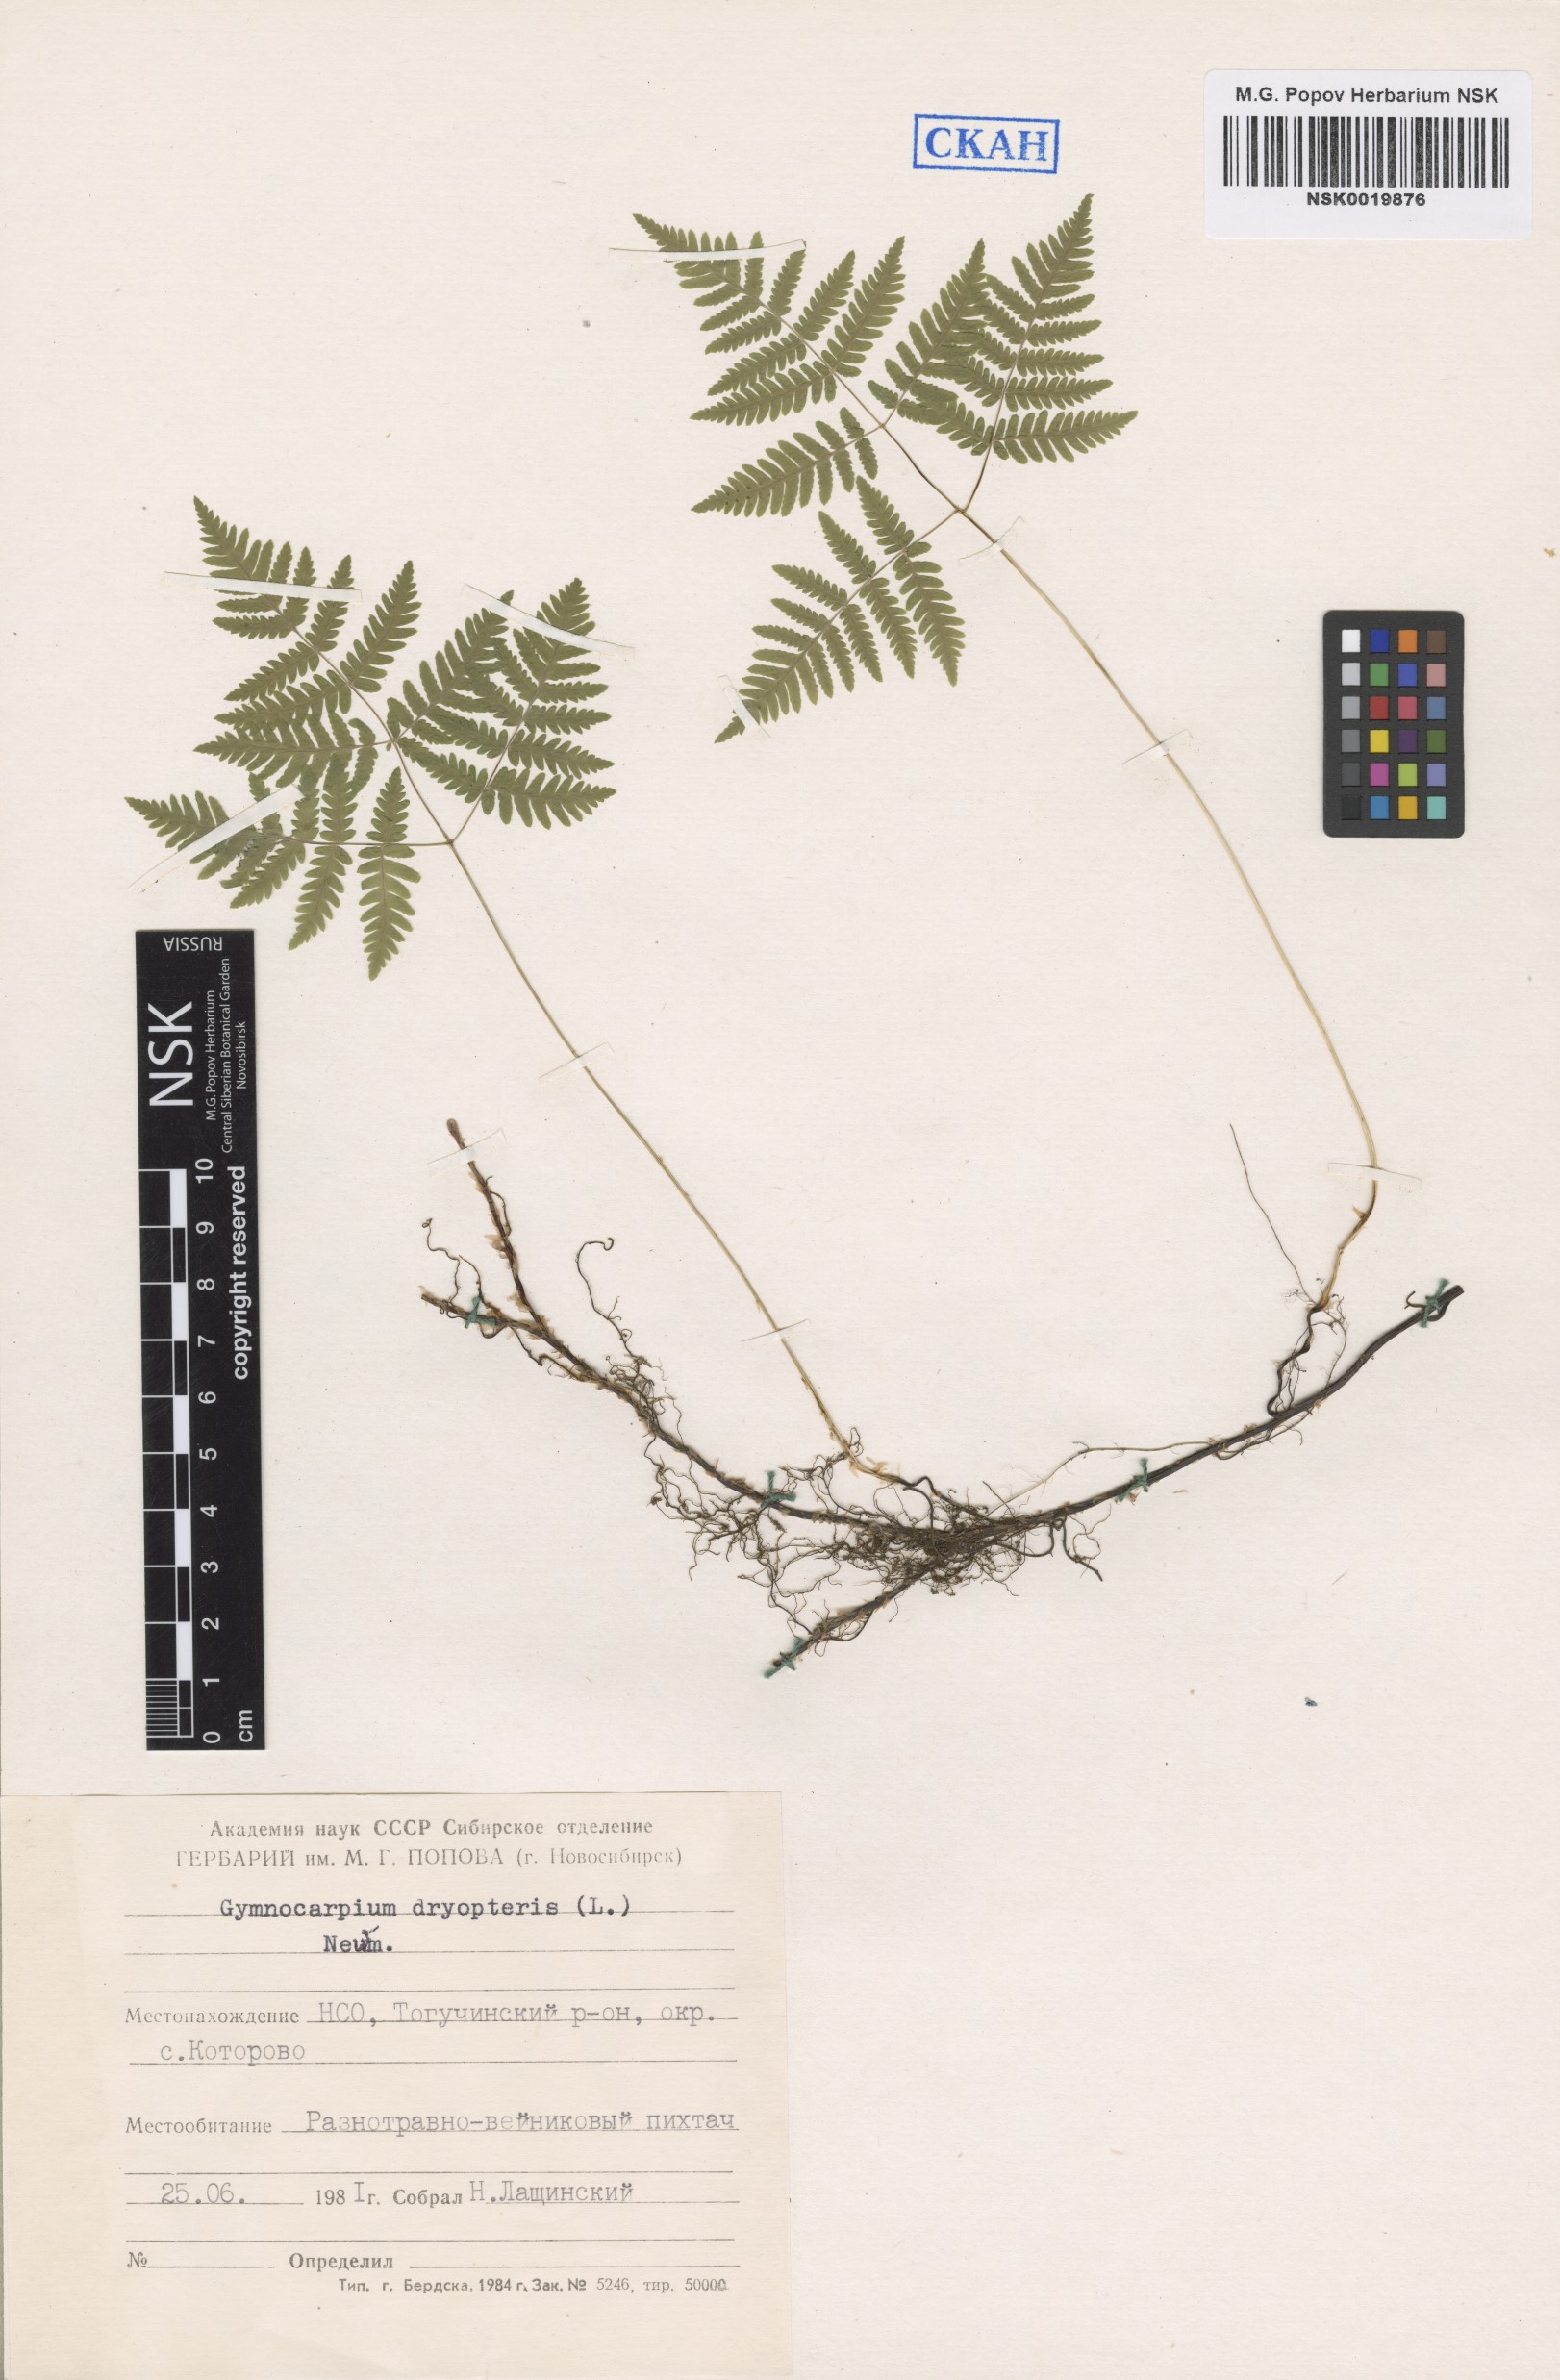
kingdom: Plantae
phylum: Tracheophyta
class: Polypodiopsida
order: Polypodiales
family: Cystopteridaceae
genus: Gymnocarpium
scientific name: Gymnocarpium dryopteris
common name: Oak fern
